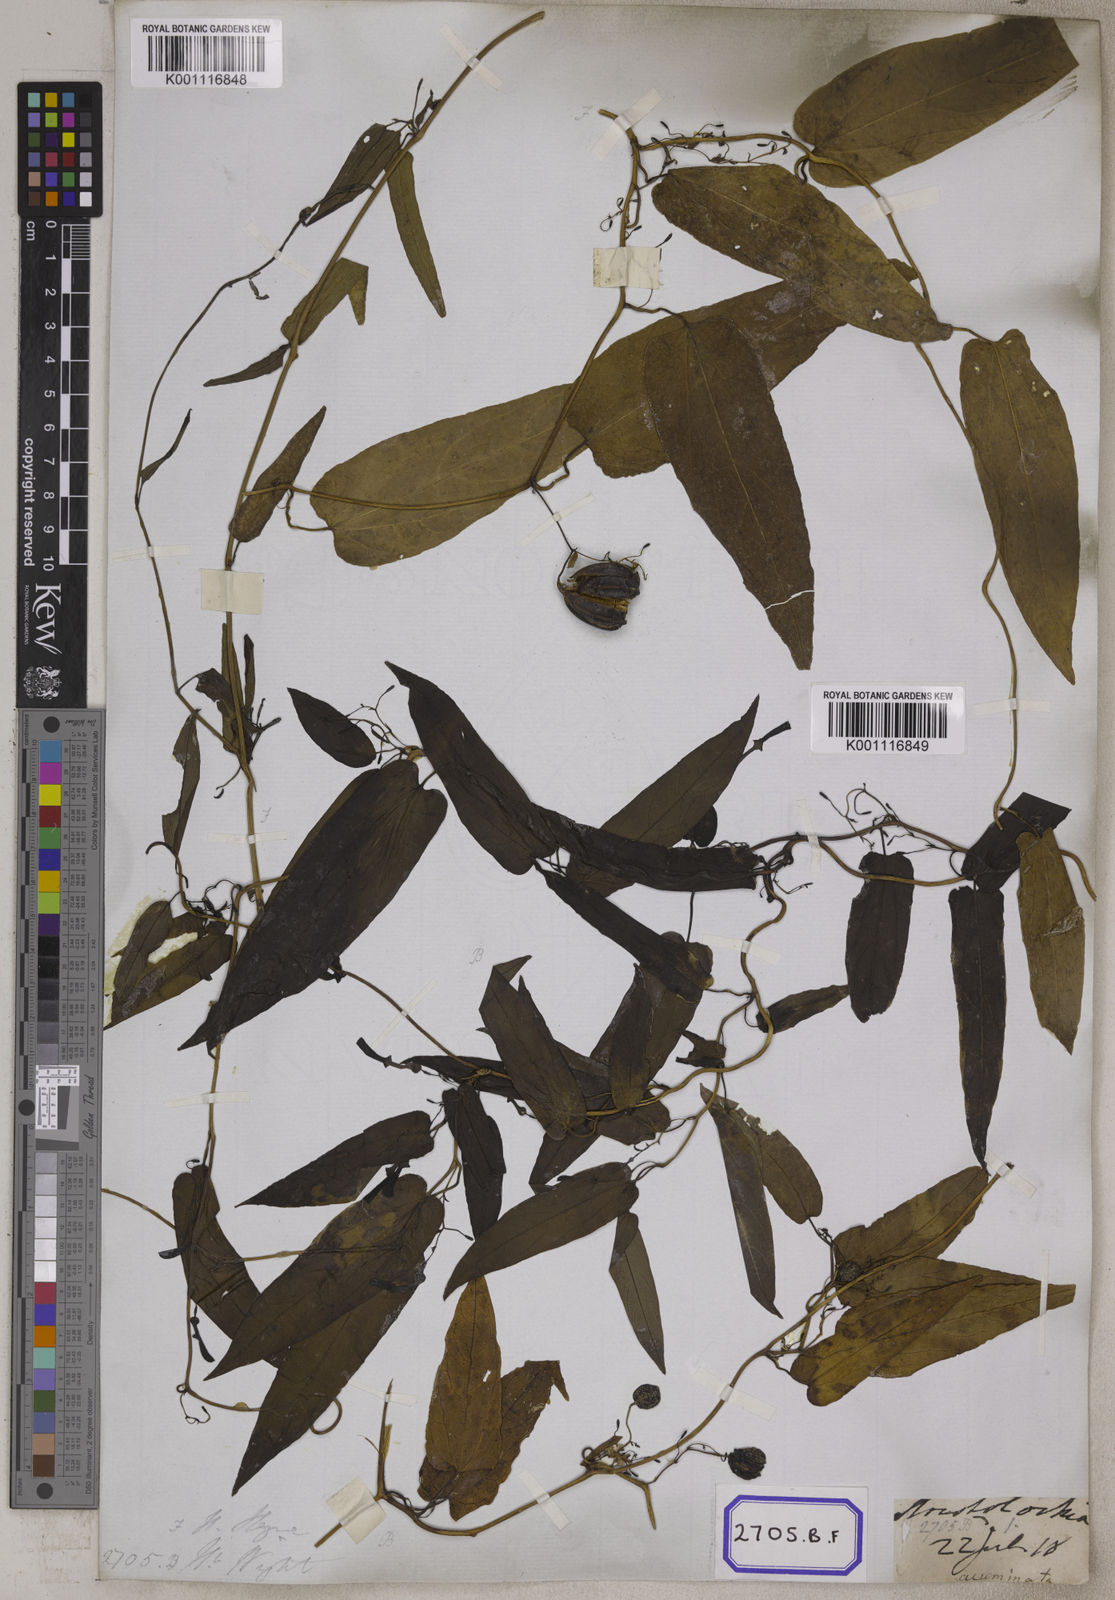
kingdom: Plantae
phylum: Tracheophyta
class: Magnoliopsida
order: Piperales
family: Aristolochiaceae
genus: Aristolochia
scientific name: Aristolochia acuminata
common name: Indian birthwort
